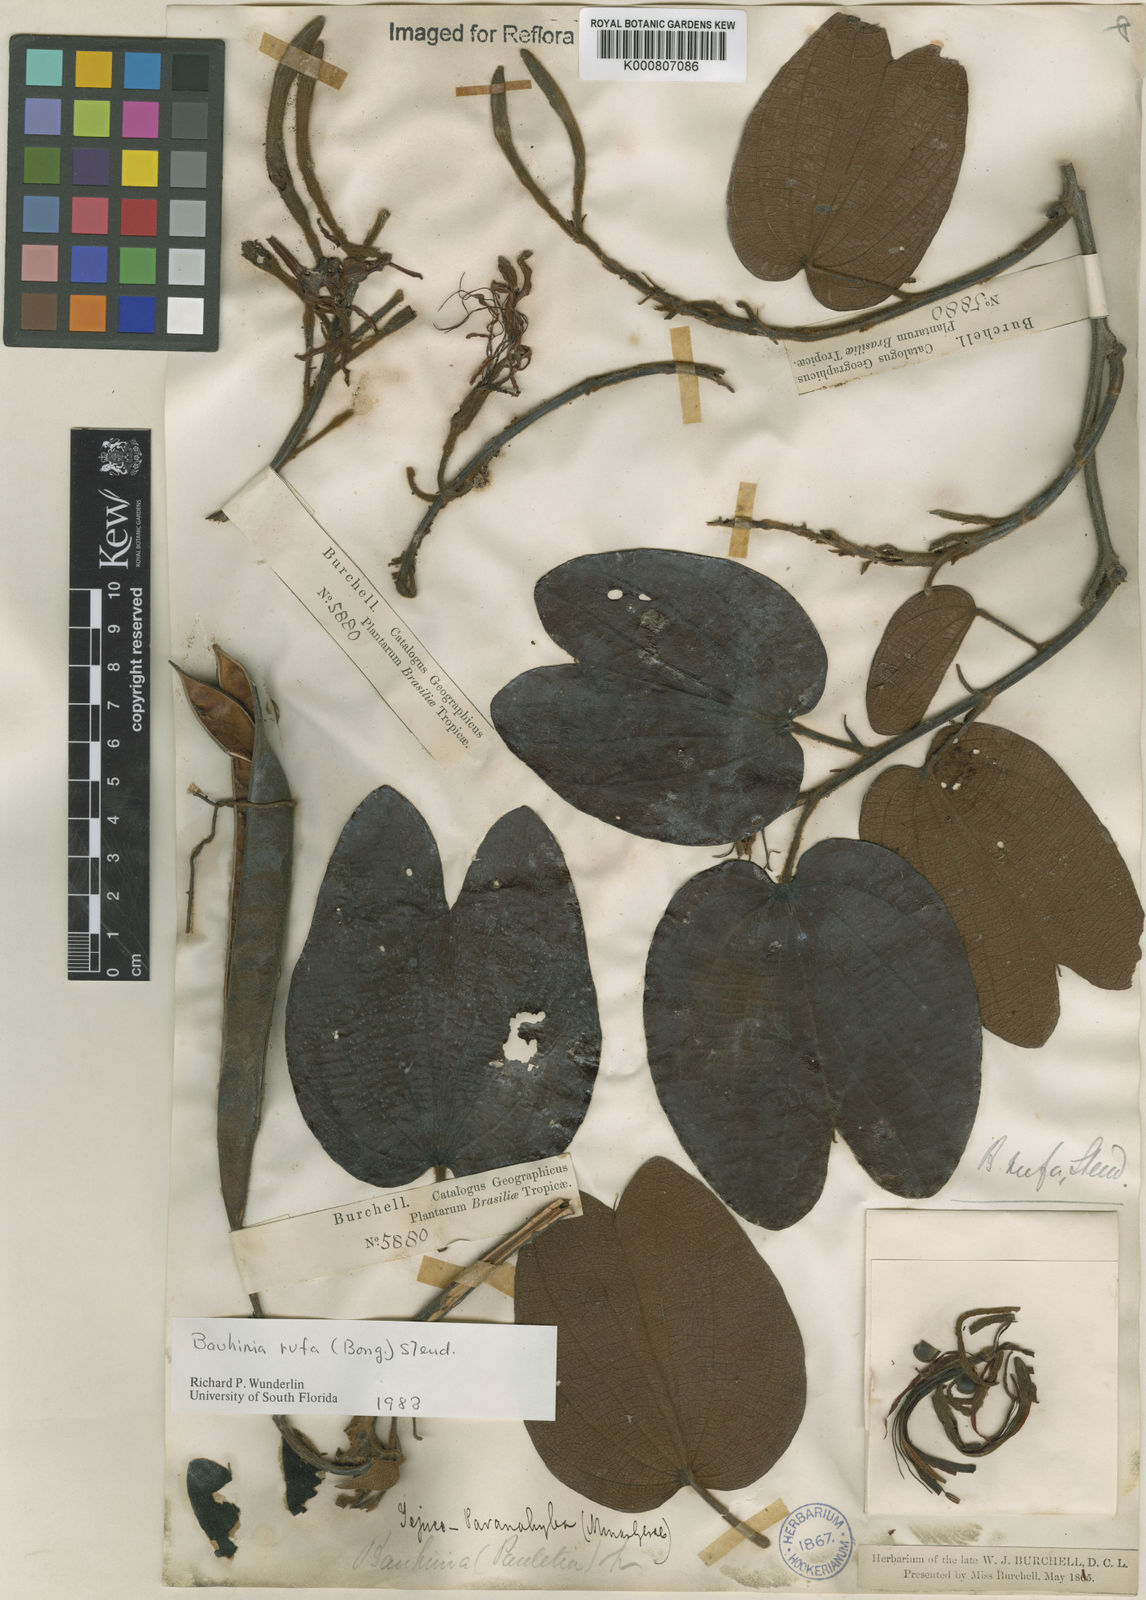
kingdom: Plantae
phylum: Tracheophyta
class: Magnoliopsida
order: Fabales
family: Fabaceae
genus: Bauhinia
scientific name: Bauhinia rufa
